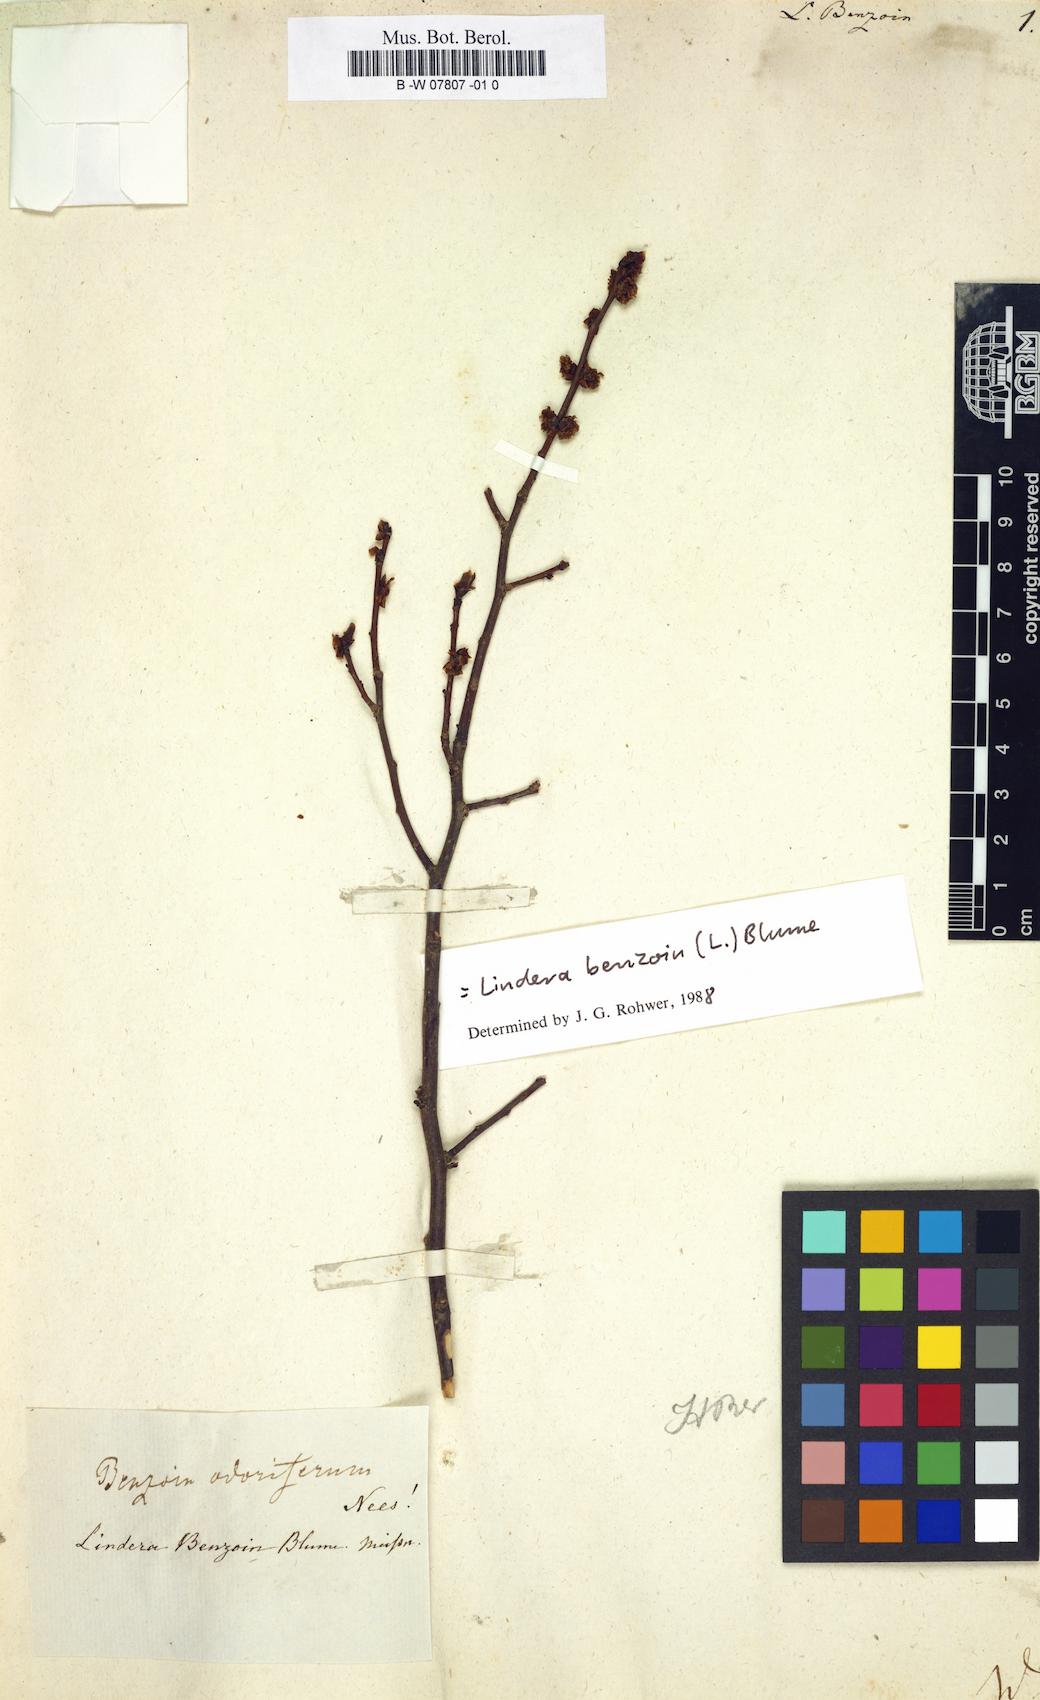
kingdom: Plantae
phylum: Tracheophyta
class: Magnoliopsida
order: Laurales
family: Lauraceae
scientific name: Lauraceae
